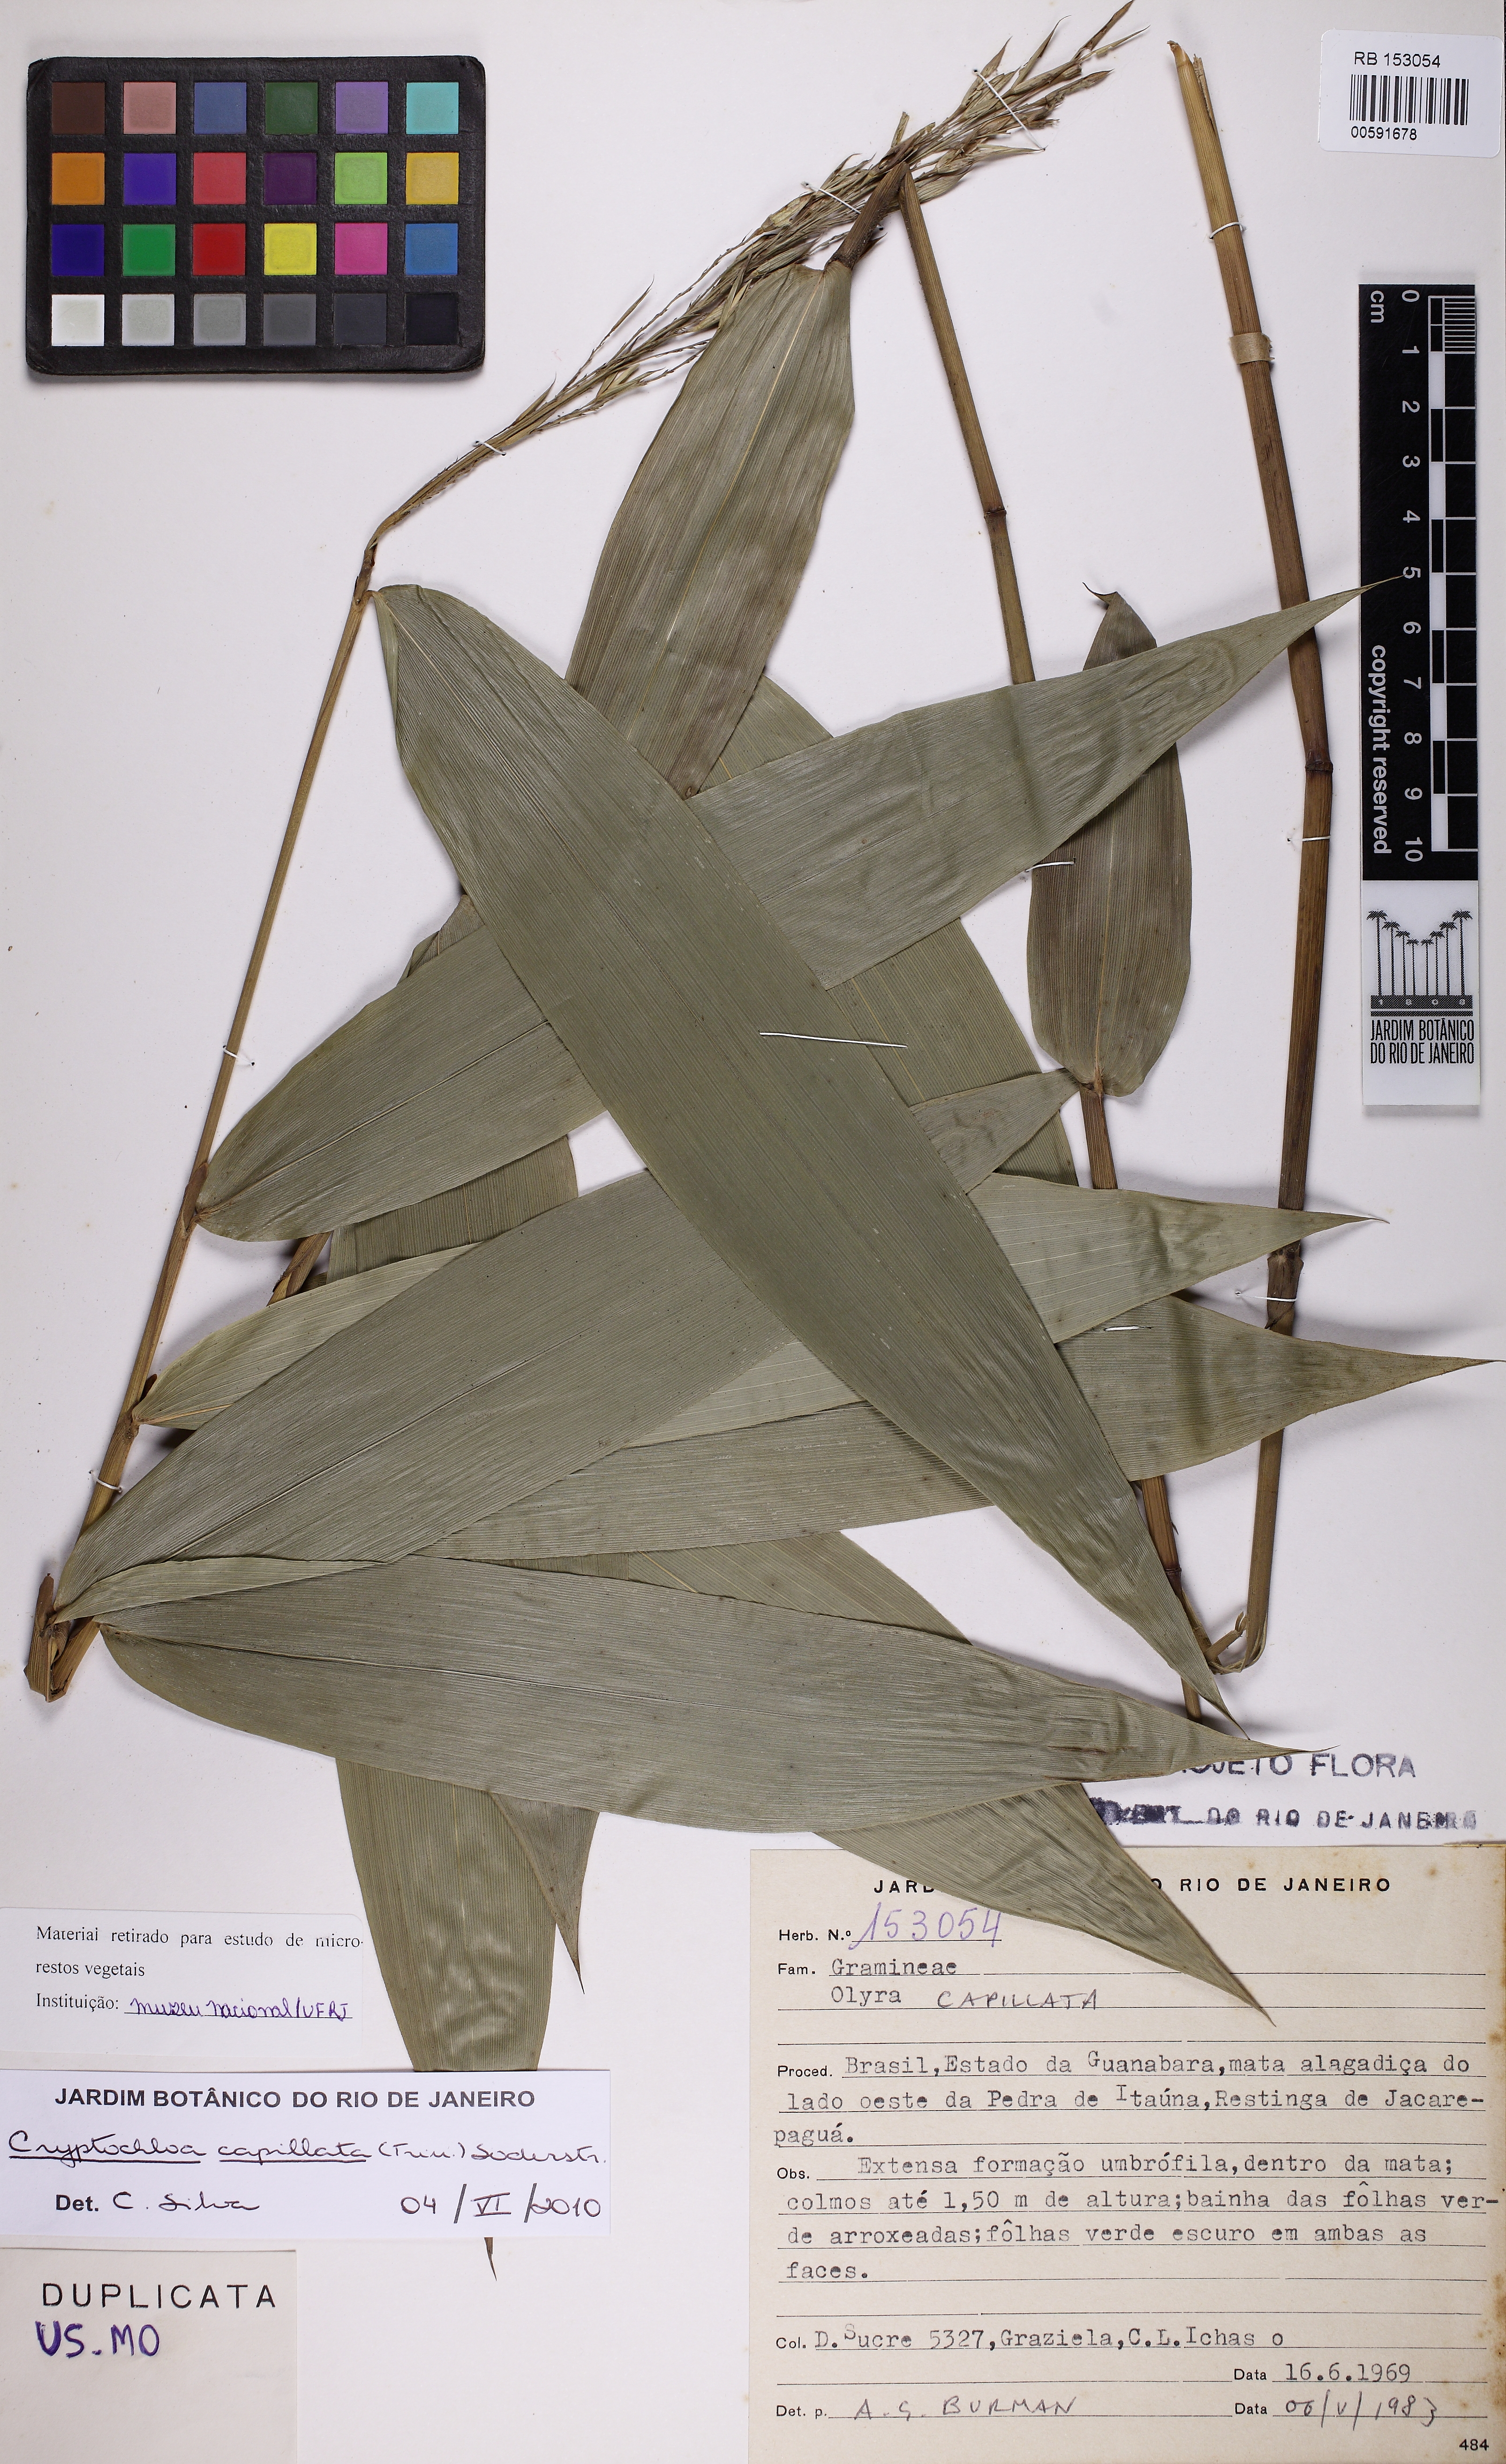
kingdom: Plantae
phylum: Tracheophyta
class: Liliopsida
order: Poales
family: Poaceae
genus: Cryptochloa
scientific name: Cryptochloa capillata
